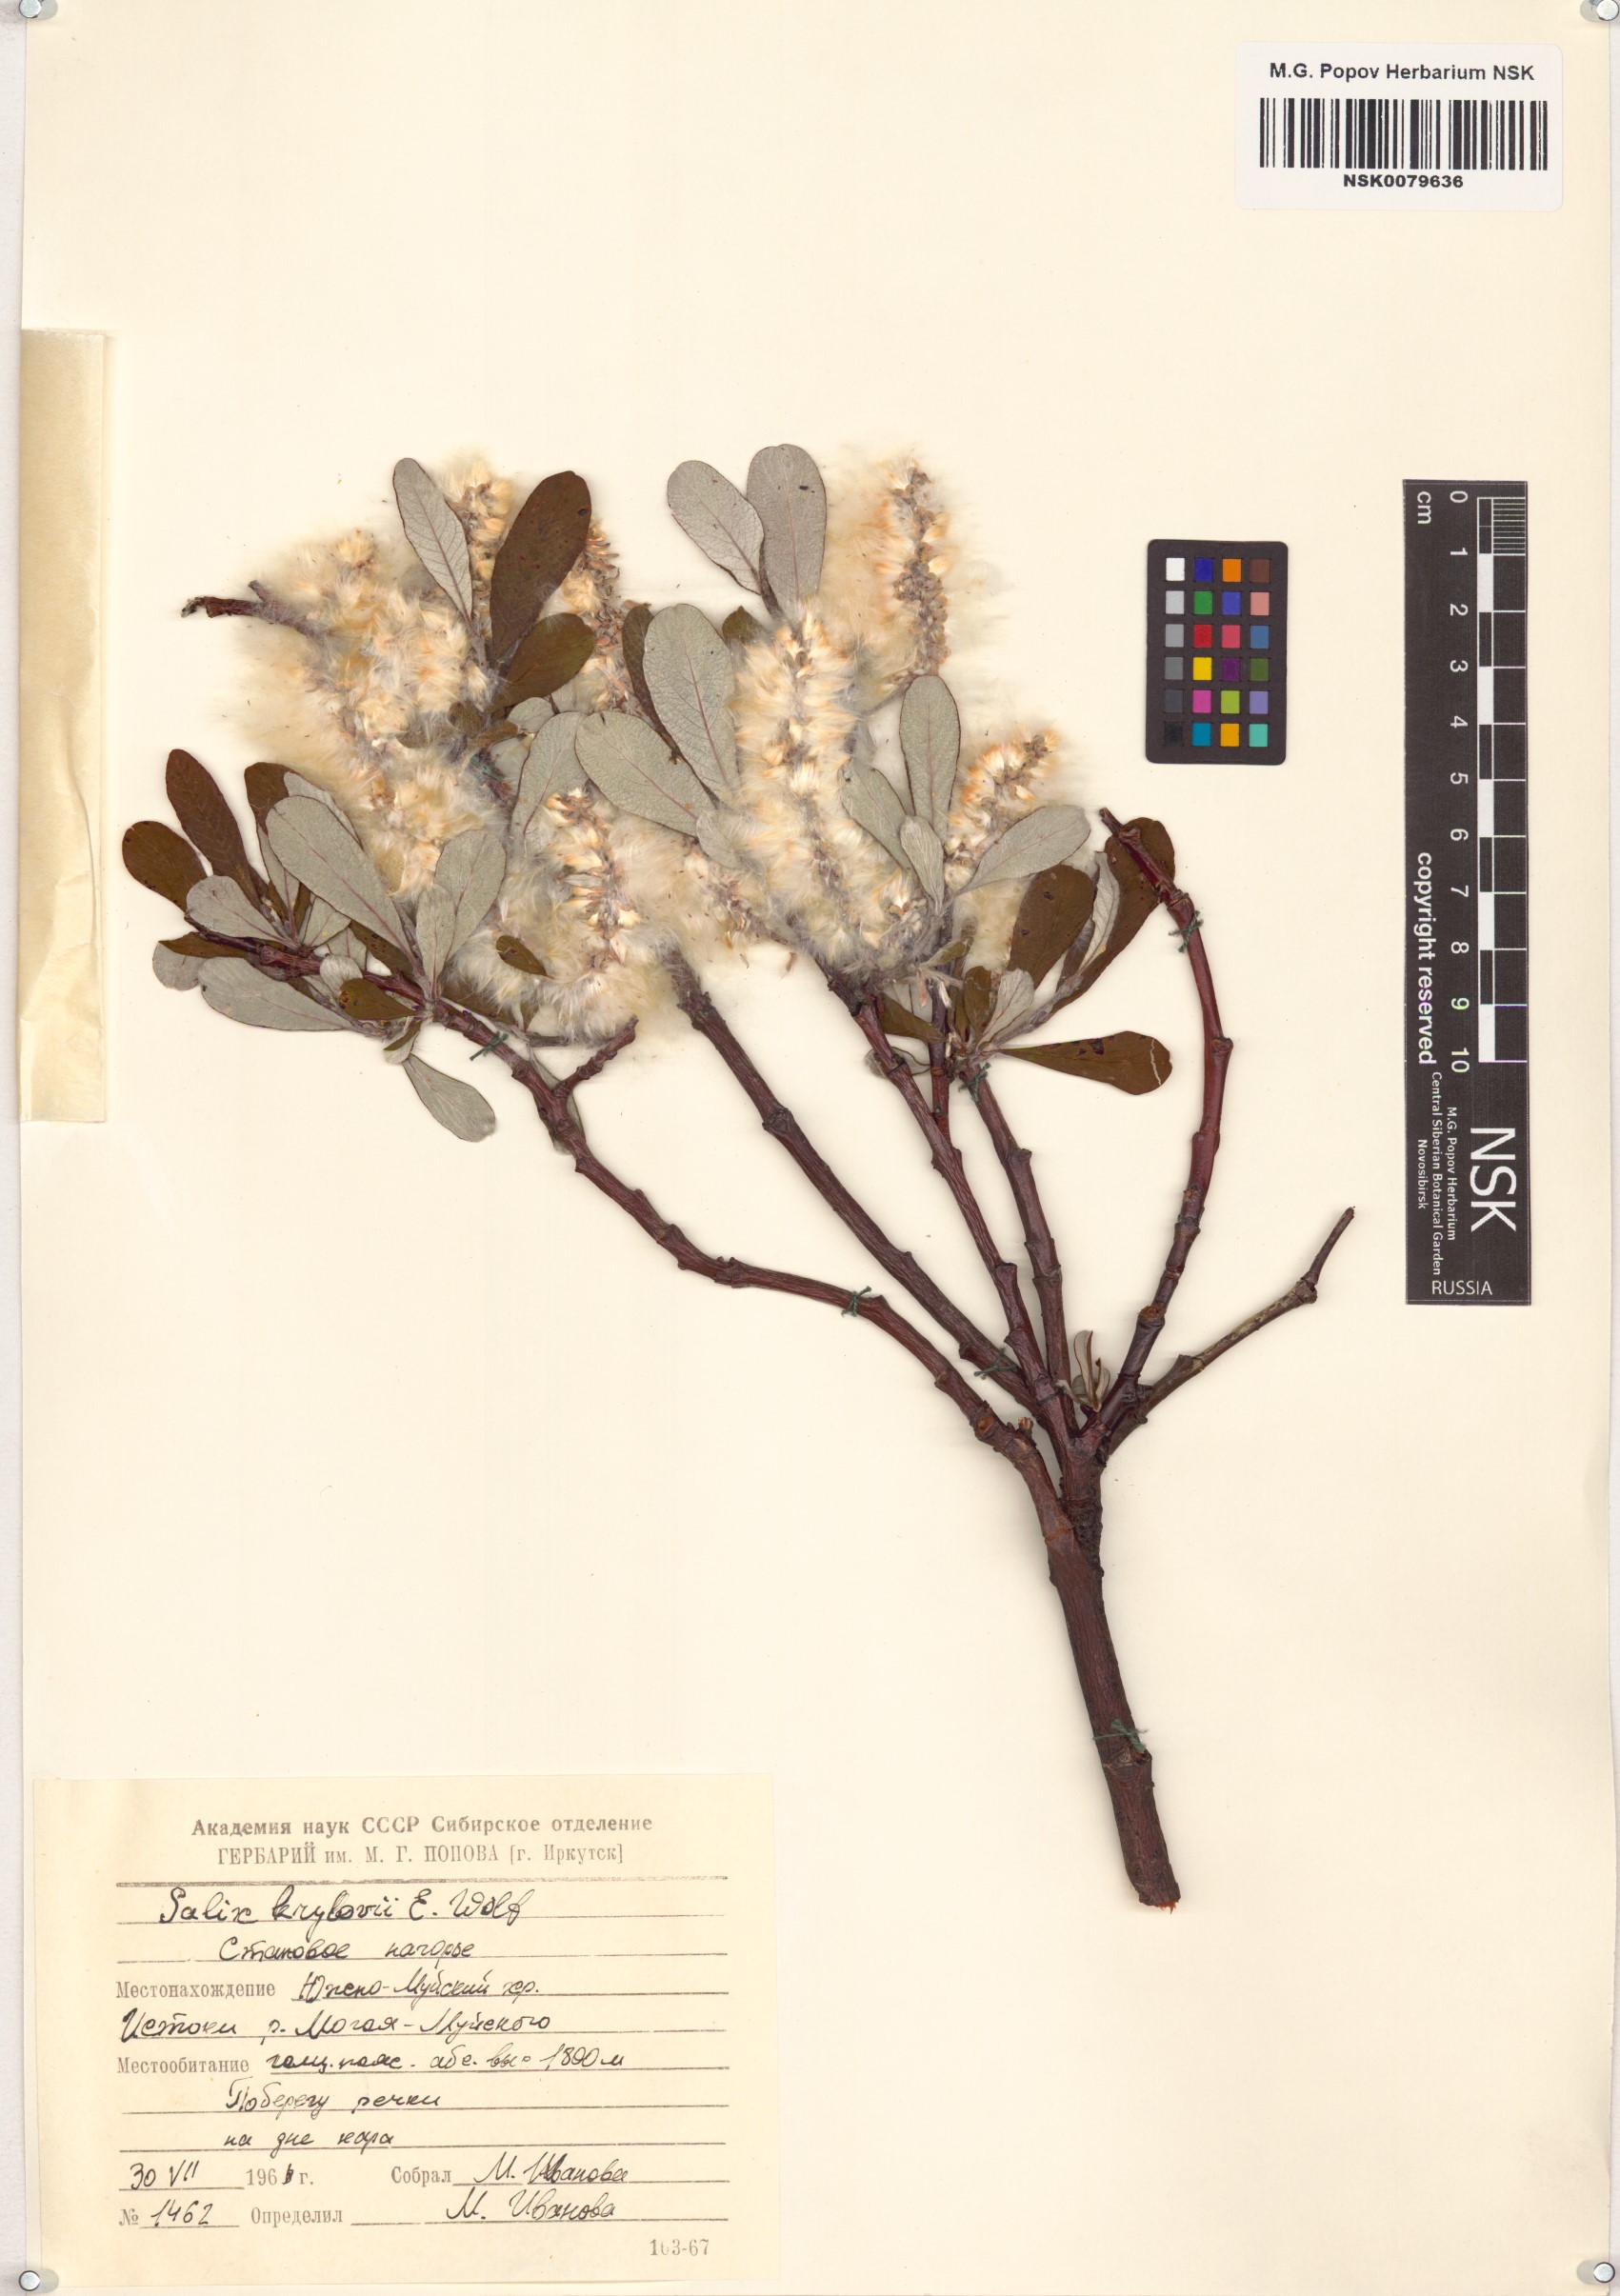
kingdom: Plantae
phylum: Tracheophyta
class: Magnoliopsida
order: Malpighiales
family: Salicaceae
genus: Salix
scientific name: Salix krylovii
